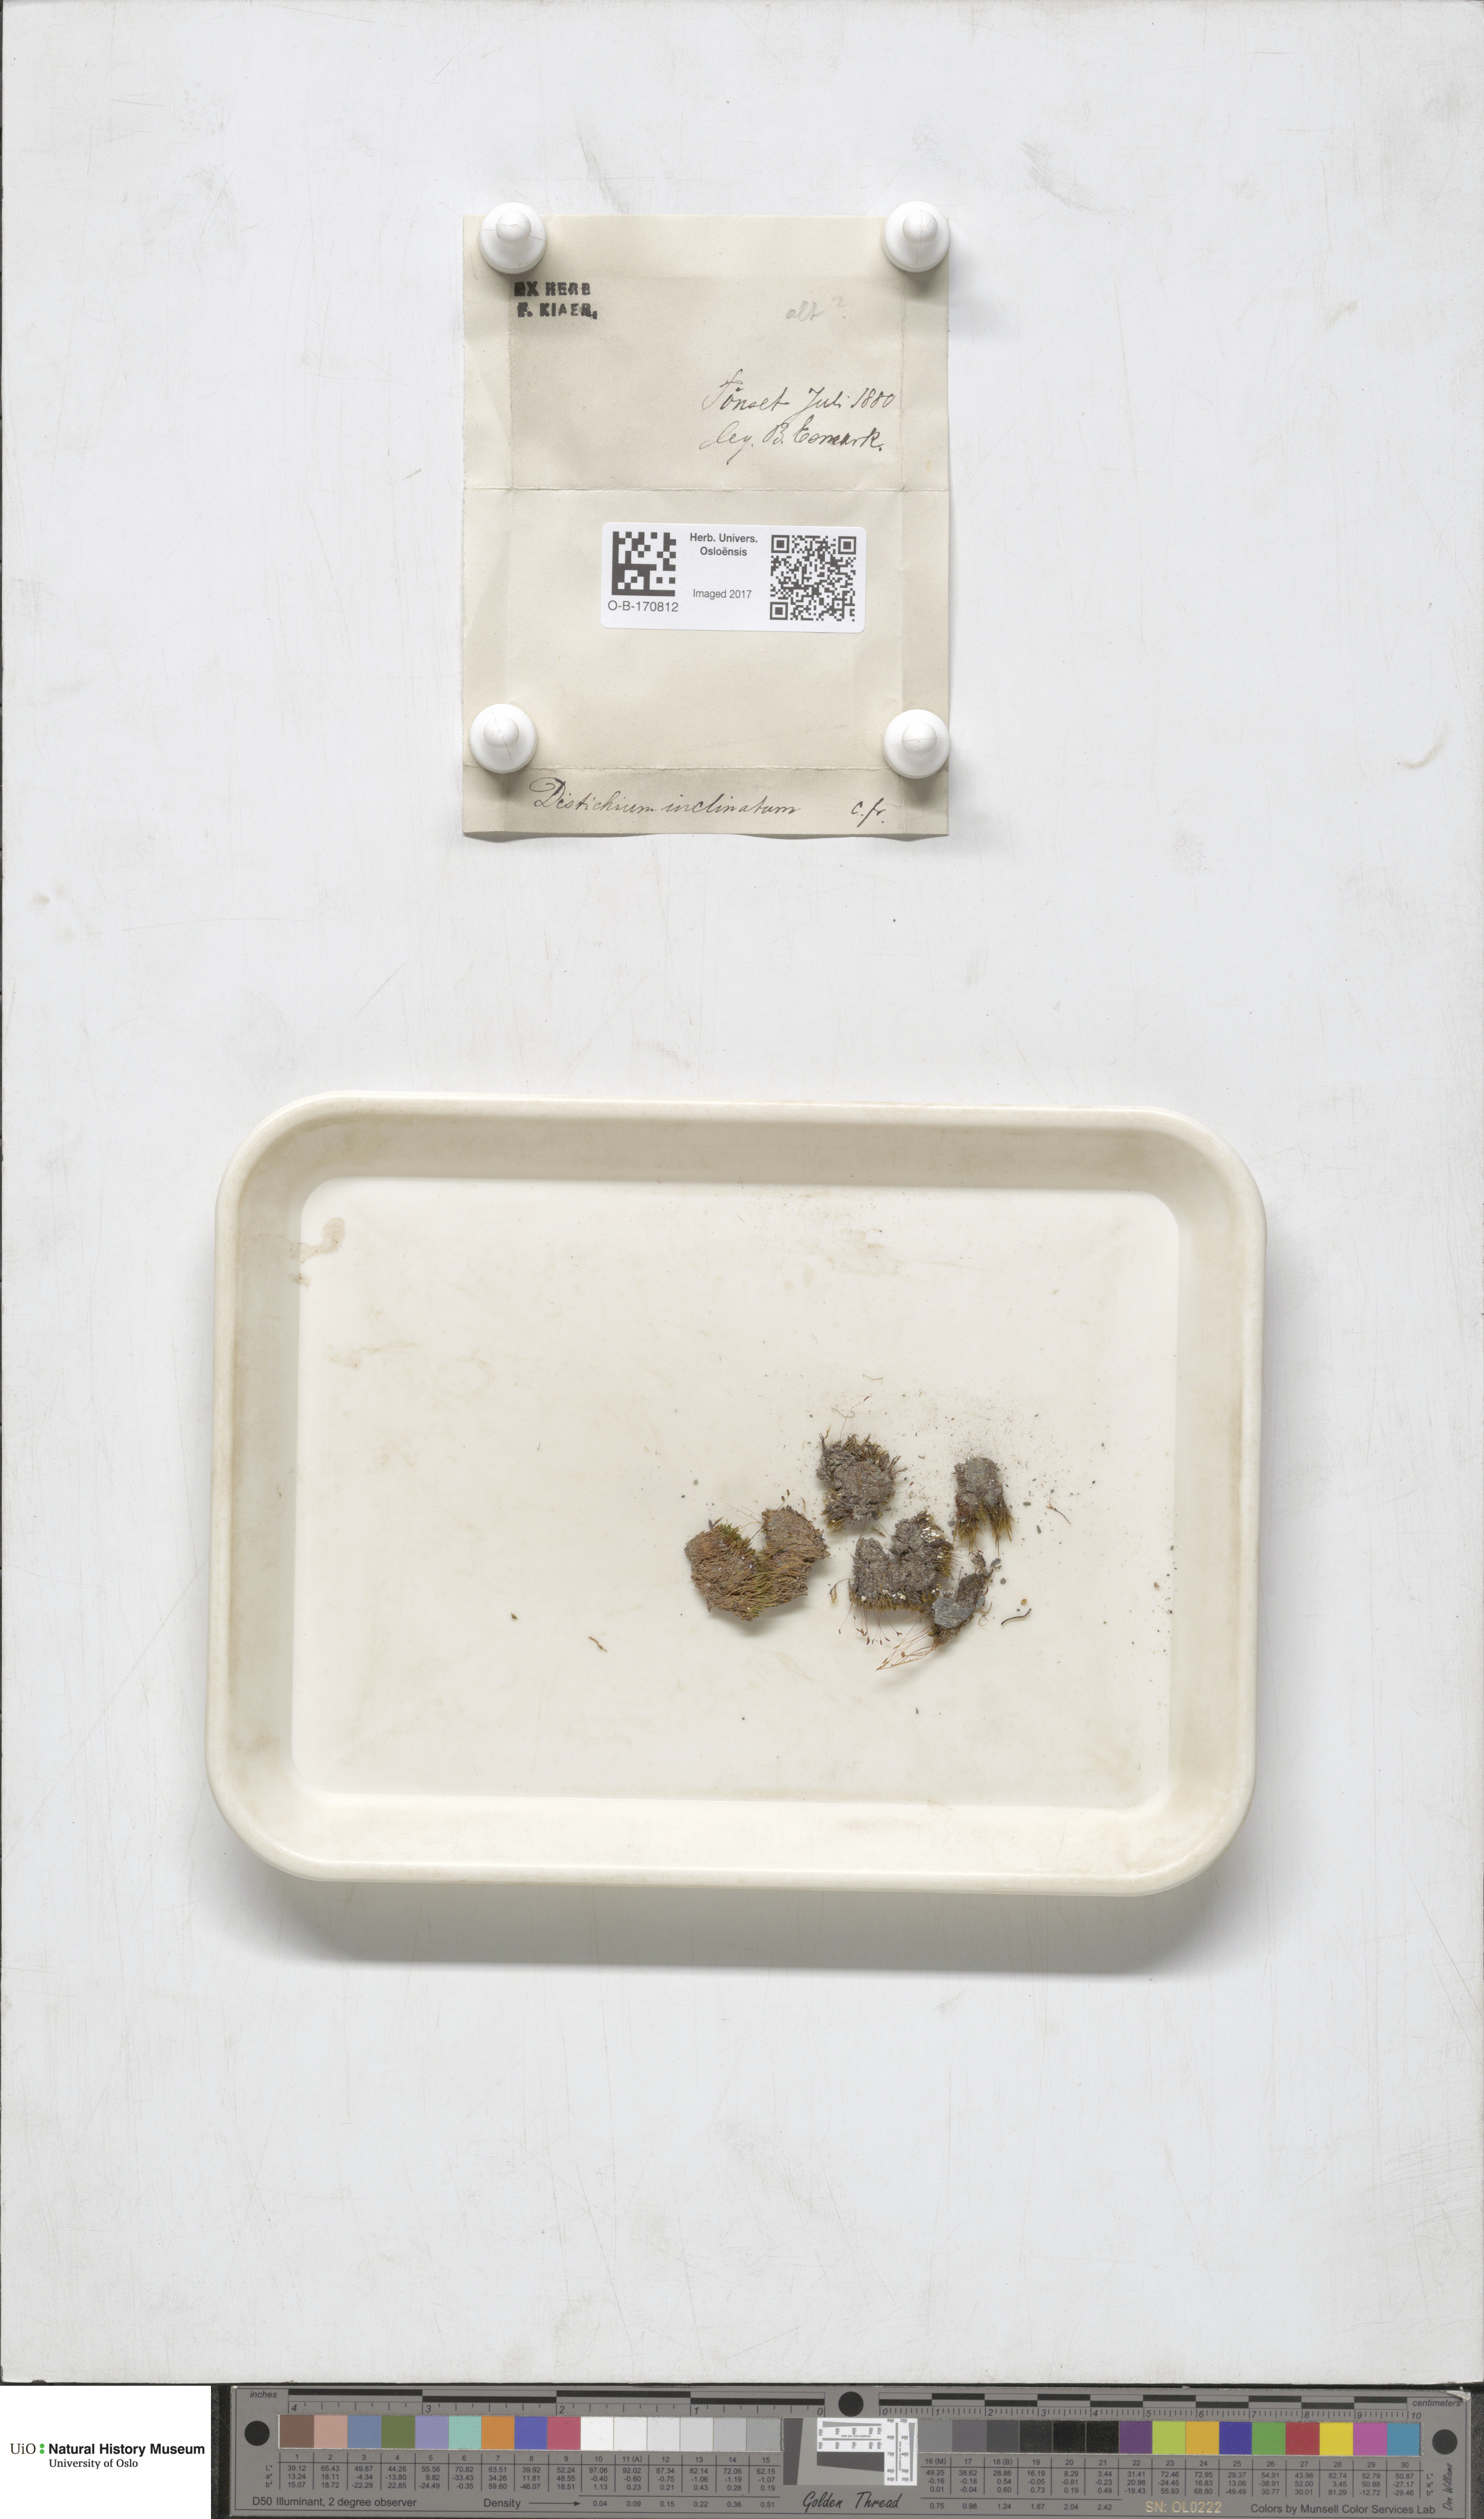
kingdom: Plantae
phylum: Bryophyta
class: Bryopsida
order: Scouleriales
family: Distichiaceae
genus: Distichium
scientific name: Distichium inclinatum
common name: Inclined iris moss
